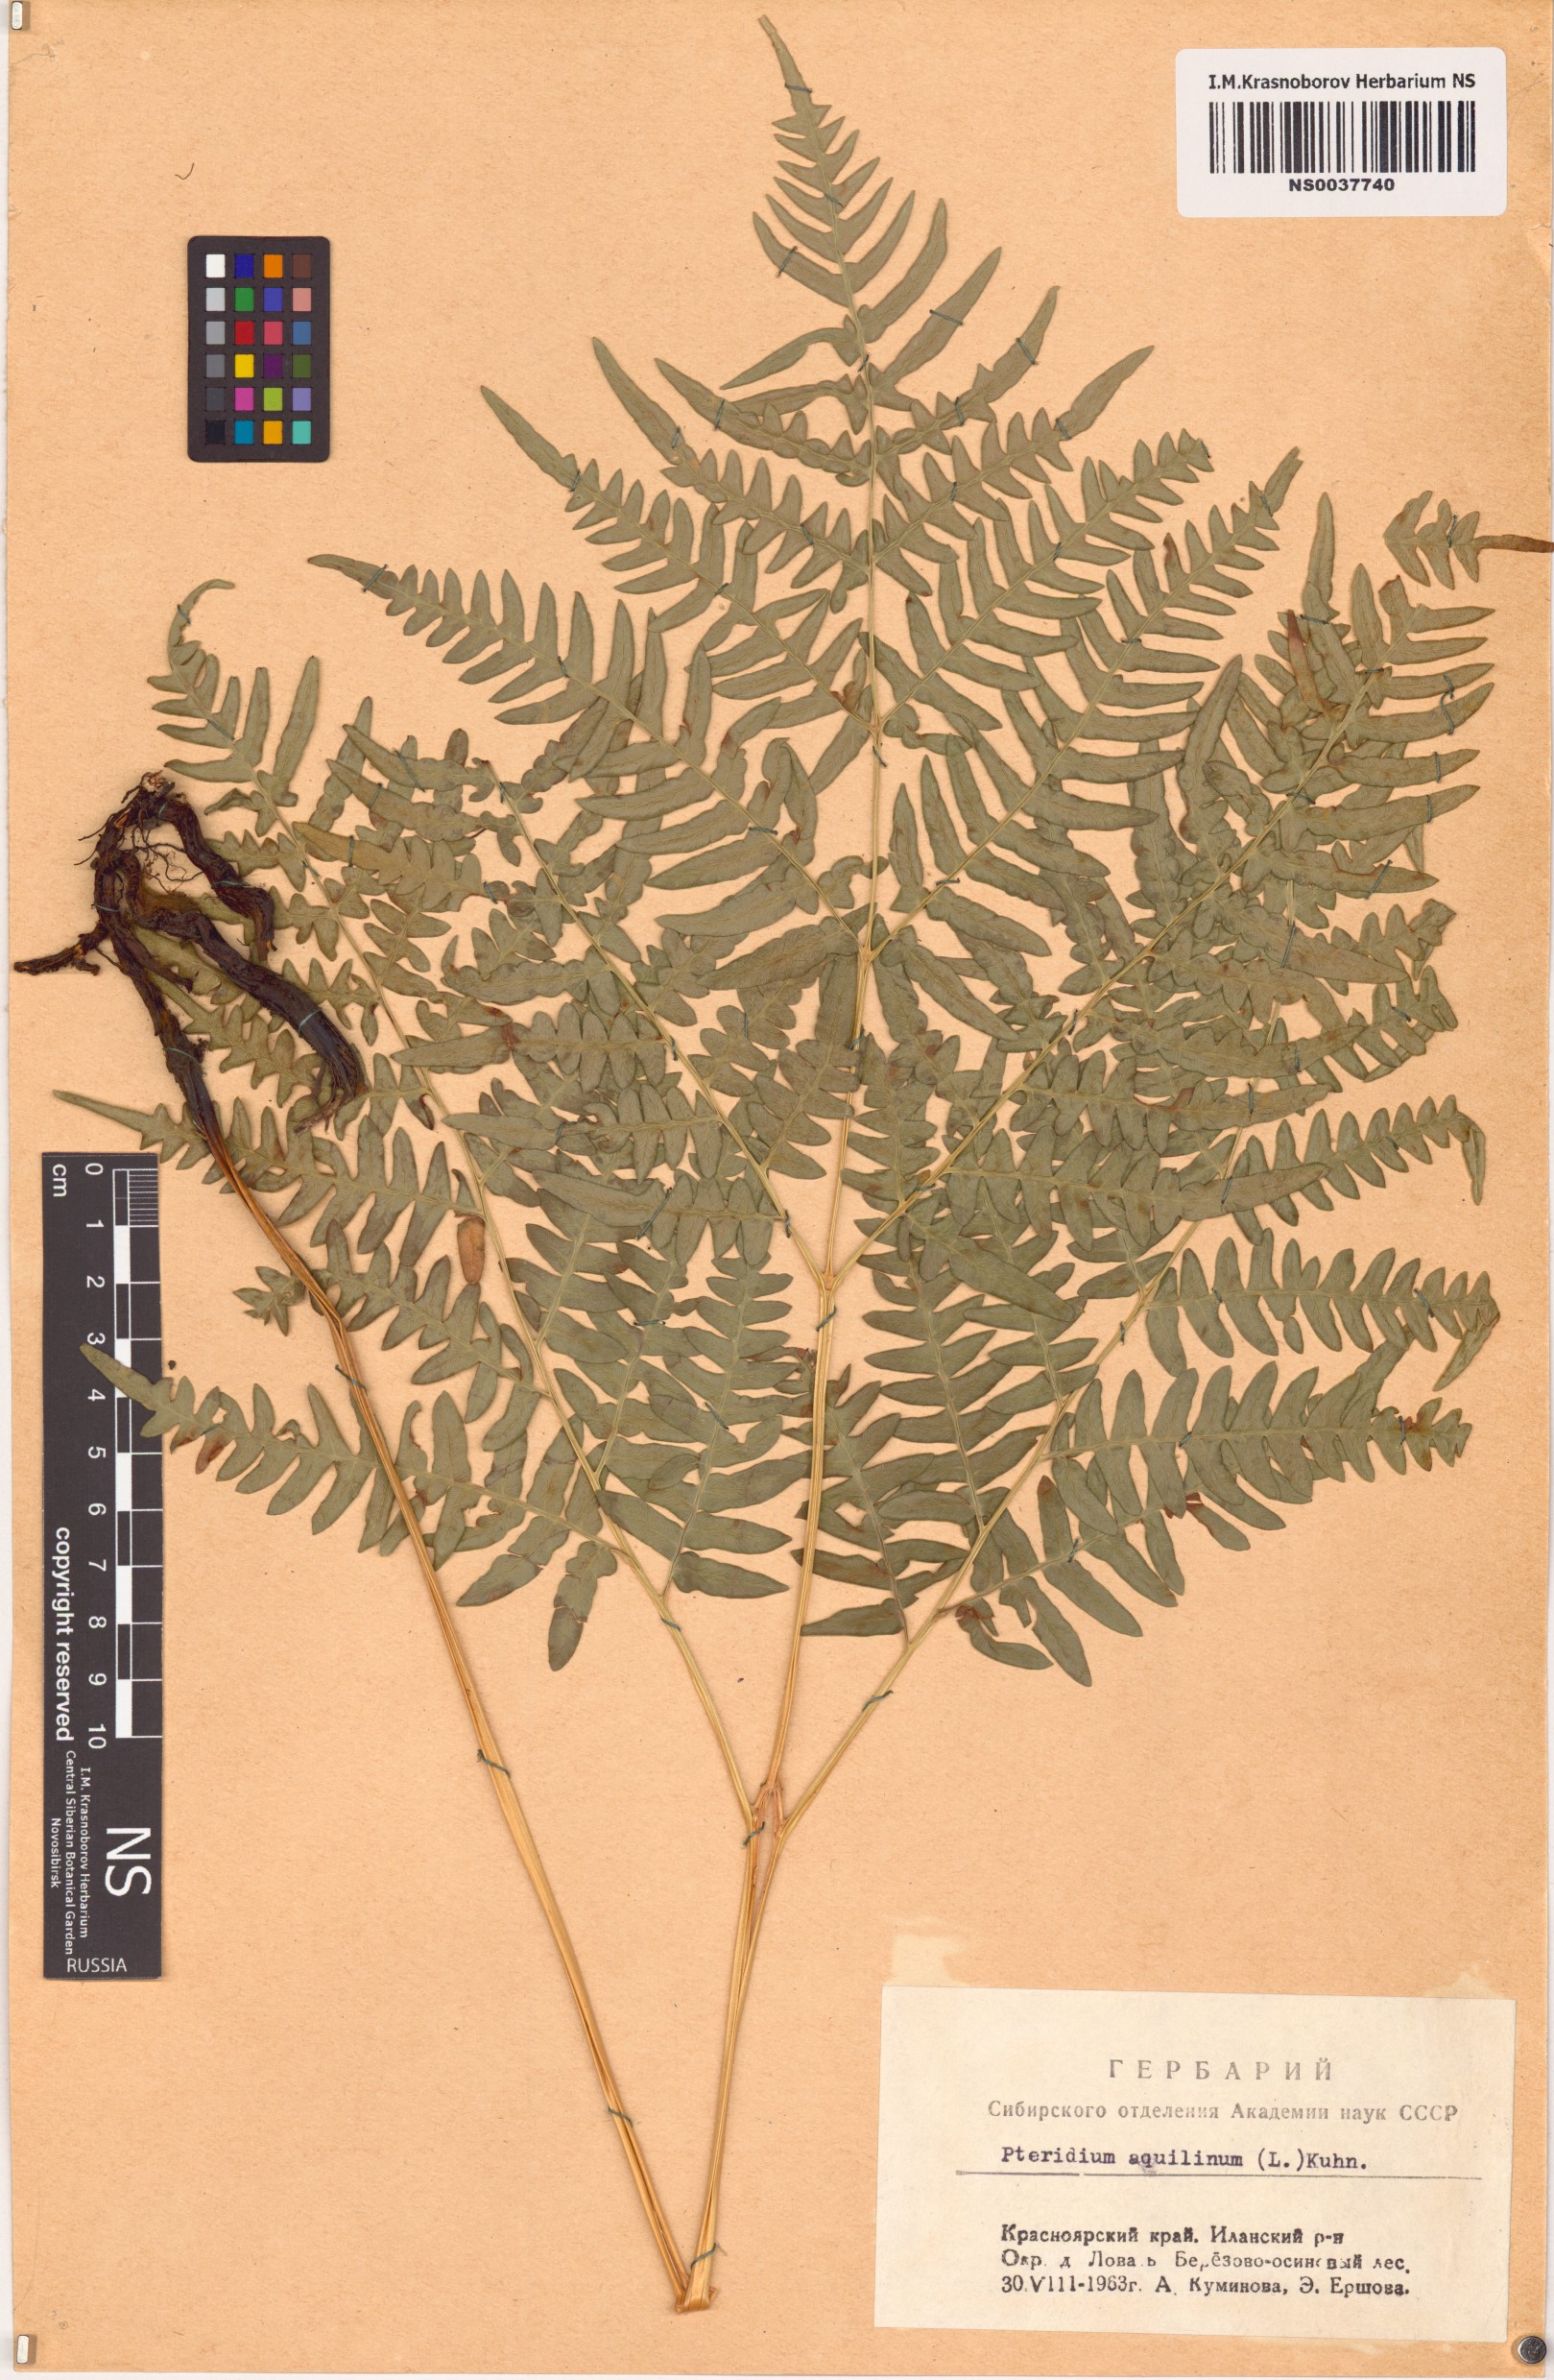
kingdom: Plantae
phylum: Tracheophyta
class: Polypodiopsida
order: Polypodiales
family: Dennstaedtiaceae
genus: Pteridium
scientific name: Pteridium aquilinum
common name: Bracken
